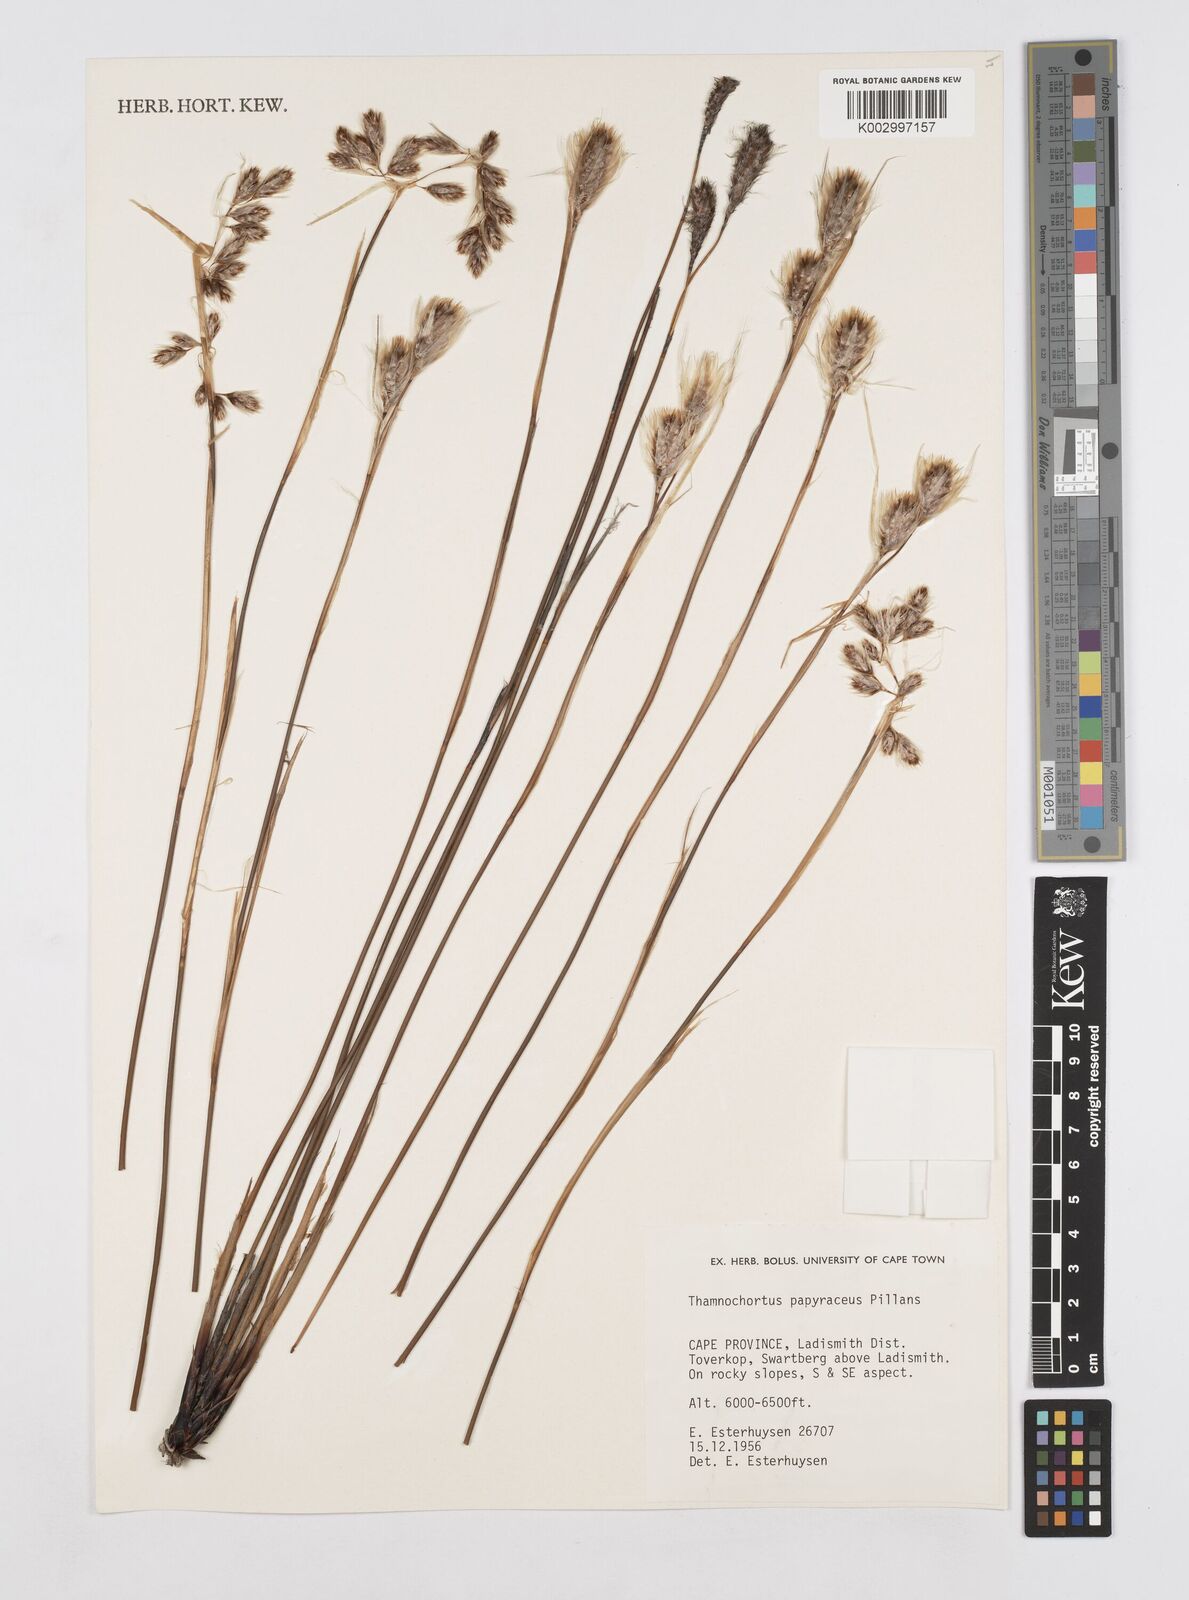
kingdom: Plantae
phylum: Tracheophyta
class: Liliopsida
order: Poales
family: Restionaceae
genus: Thamnochortus
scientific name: Thamnochortus papyraceus
